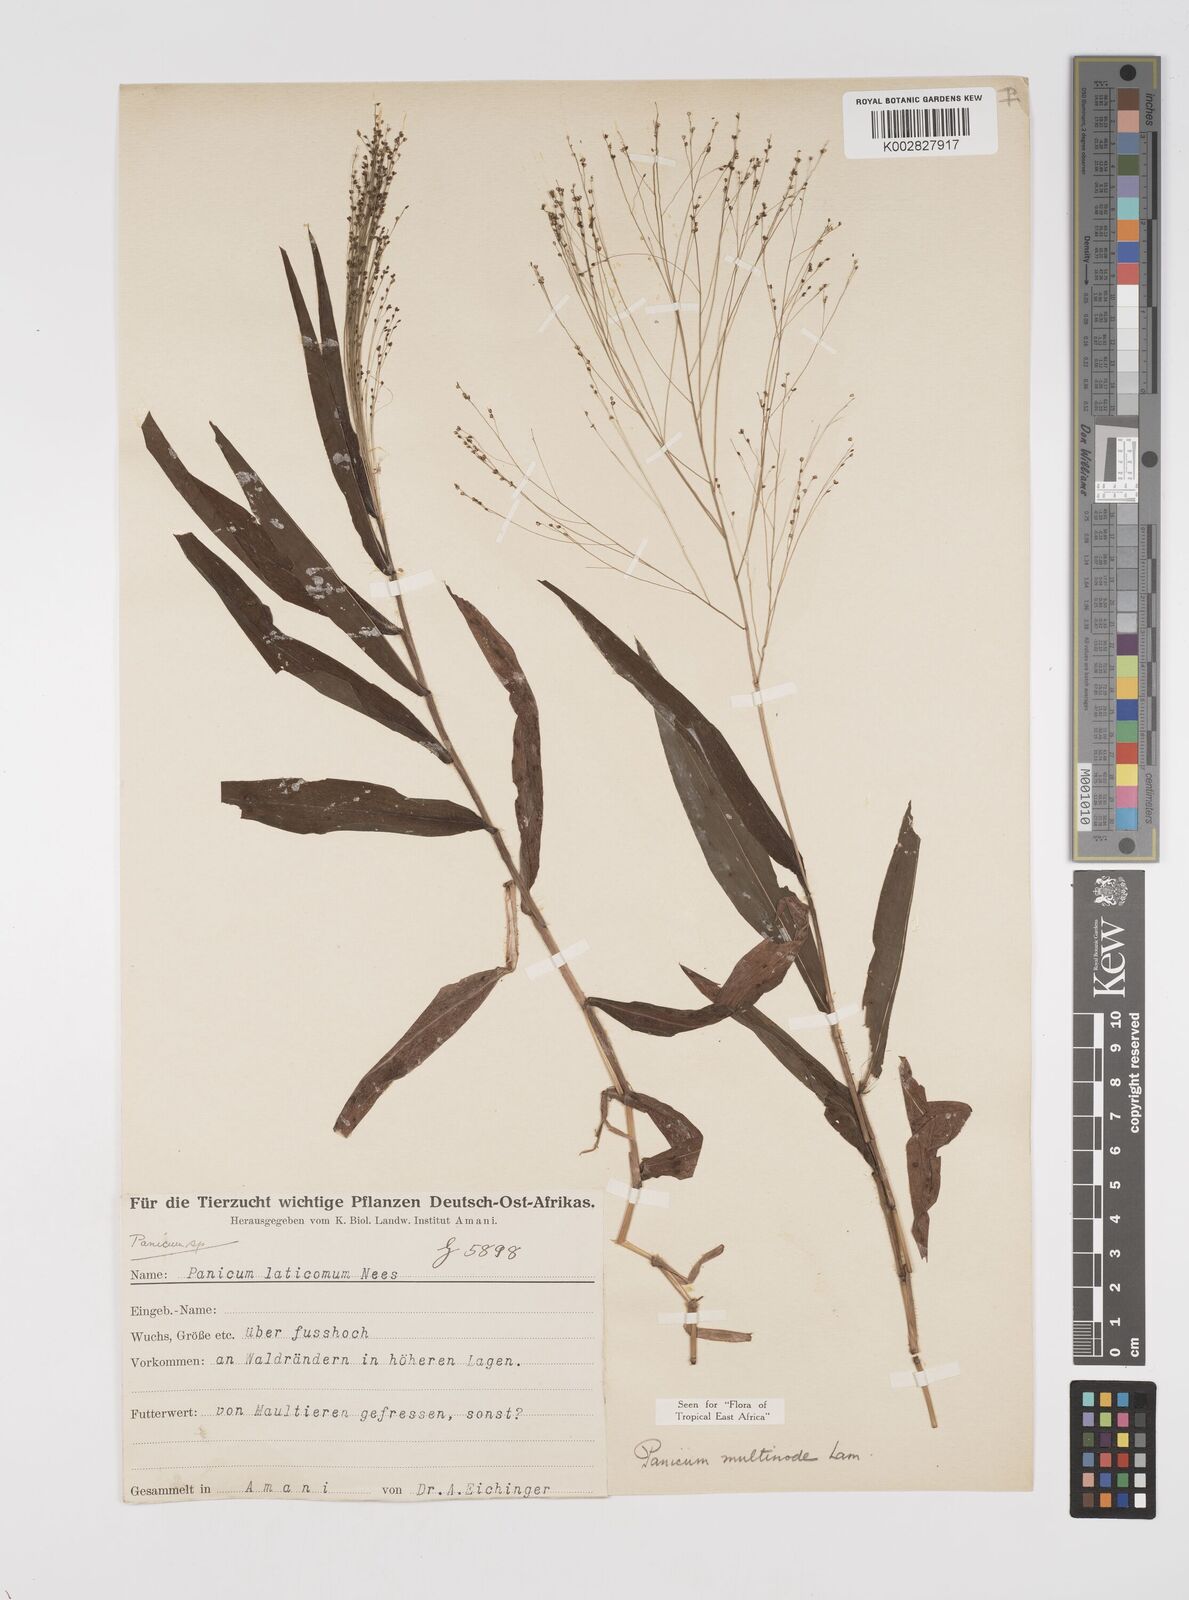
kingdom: Plantae
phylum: Tracheophyta
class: Liliopsida
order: Poales
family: Poaceae
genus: Cyrtococcum
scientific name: Cyrtococcum multinode
